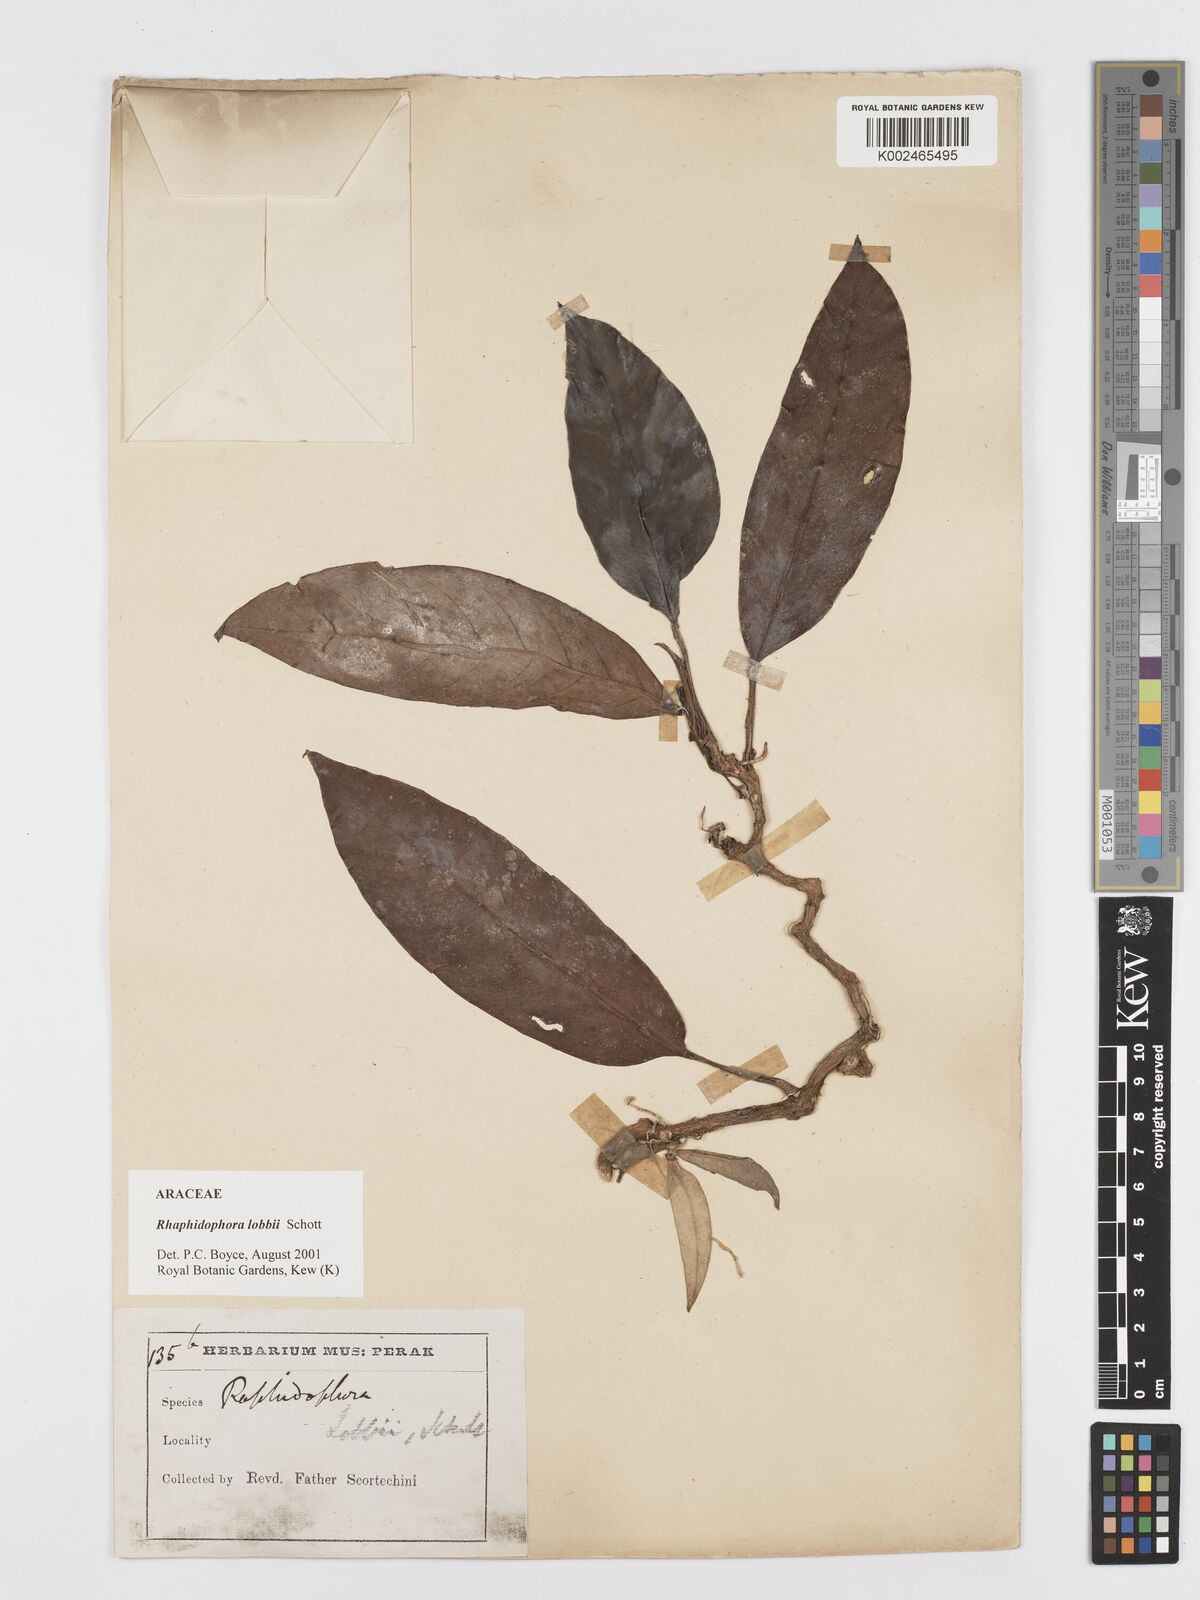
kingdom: Plantae
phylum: Tracheophyta
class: Liliopsida
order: Alismatales
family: Araceae
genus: Rhaphidophora
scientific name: Rhaphidophora lobbii
